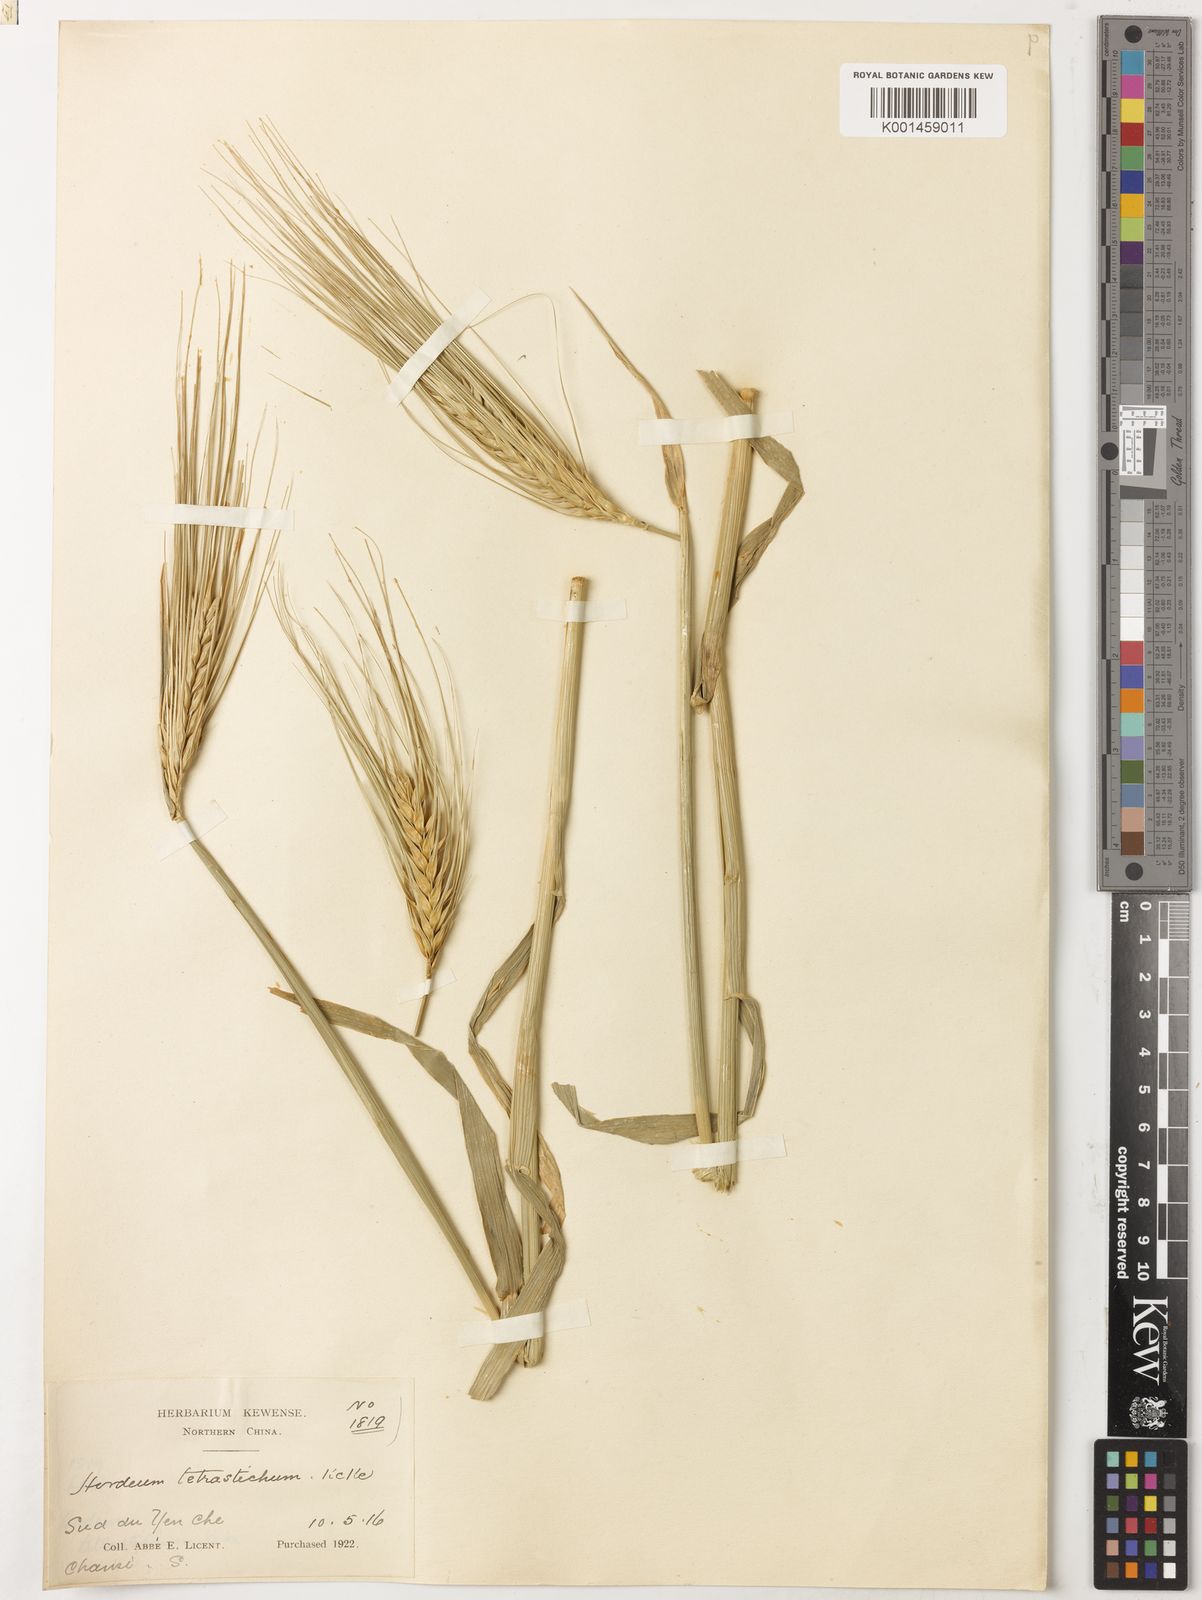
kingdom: Plantae
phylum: Tracheophyta
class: Liliopsida
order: Poales
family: Poaceae
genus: Hordeum
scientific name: Hordeum vulgare
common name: Common barley
